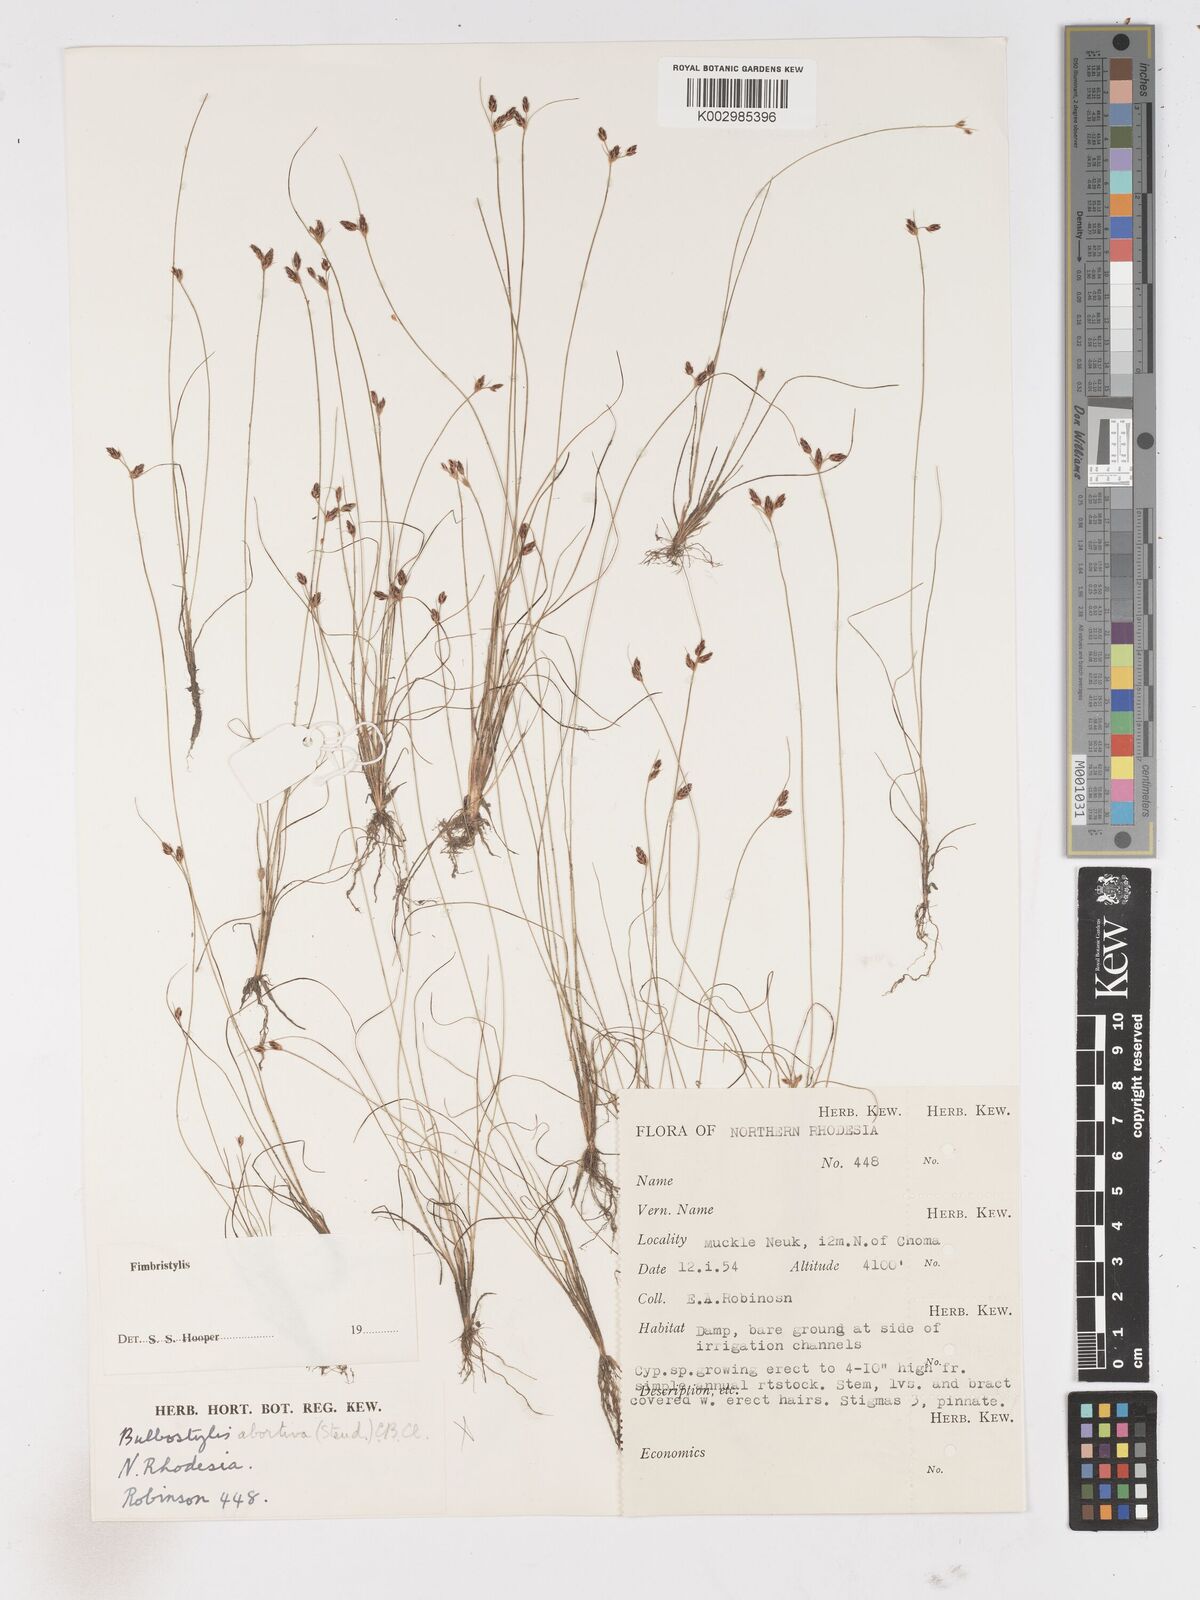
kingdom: Plantae
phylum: Tracheophyta
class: Liliopsida
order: Poales
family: Cyperaceae
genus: Fimbristylis
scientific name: Fimbristylis
